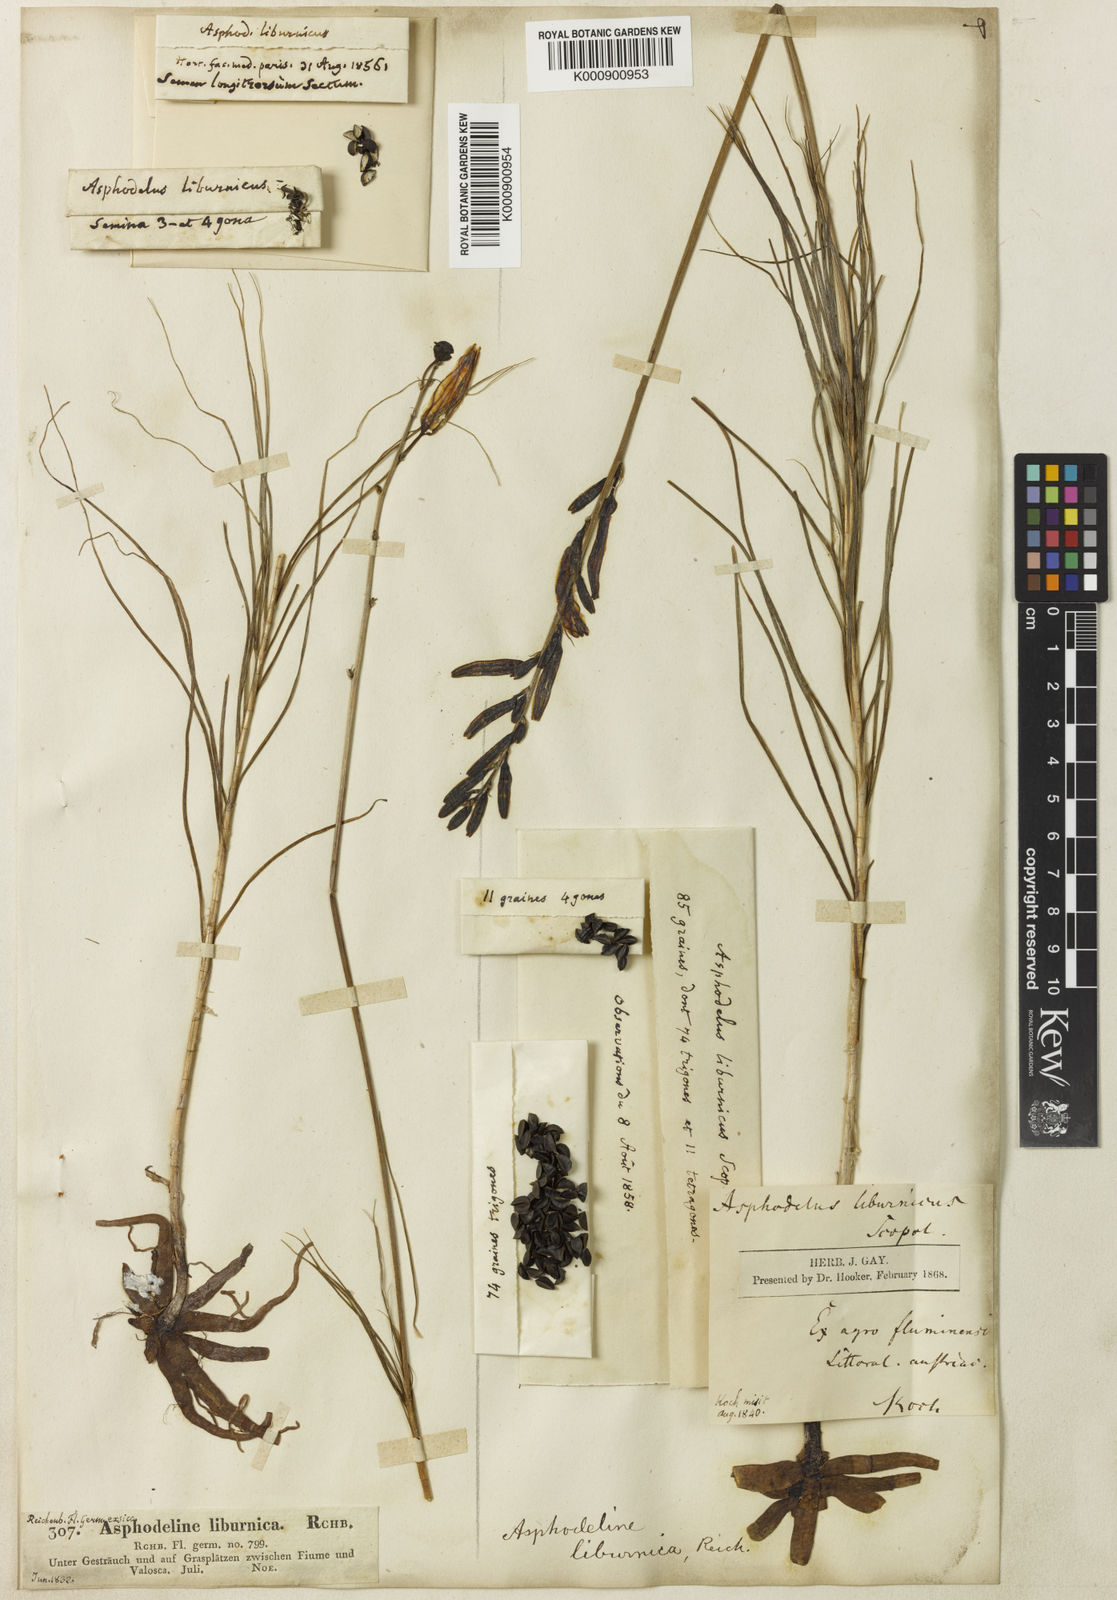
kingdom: Plantae
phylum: Tracheophyta
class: Liliopsida
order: Asparagales
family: Asphodelaceae
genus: Asphodeline
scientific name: Asphodeline liburnica
